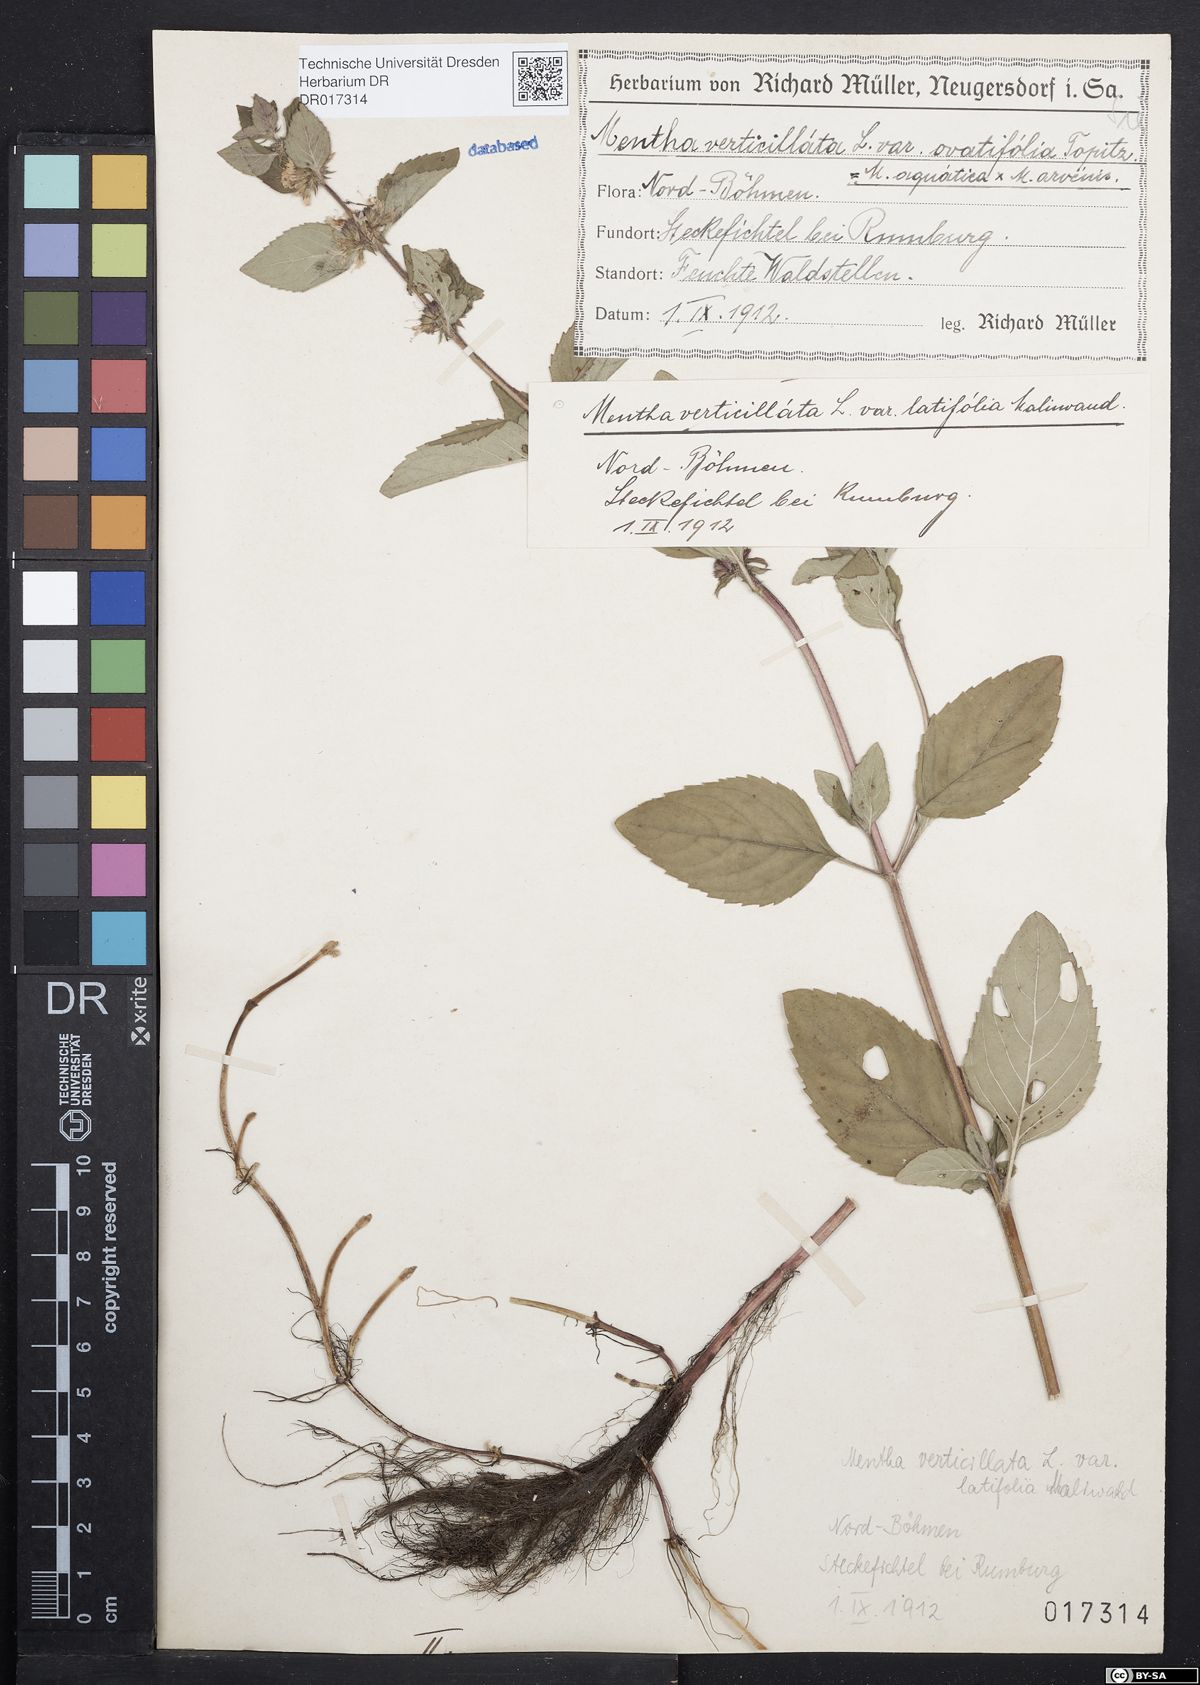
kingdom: Plantae
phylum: Tracheophyta
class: Magnoliopsida
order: Lamiales
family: Lamiaceae
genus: Mentha
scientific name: Mentha verticillata
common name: Mint
